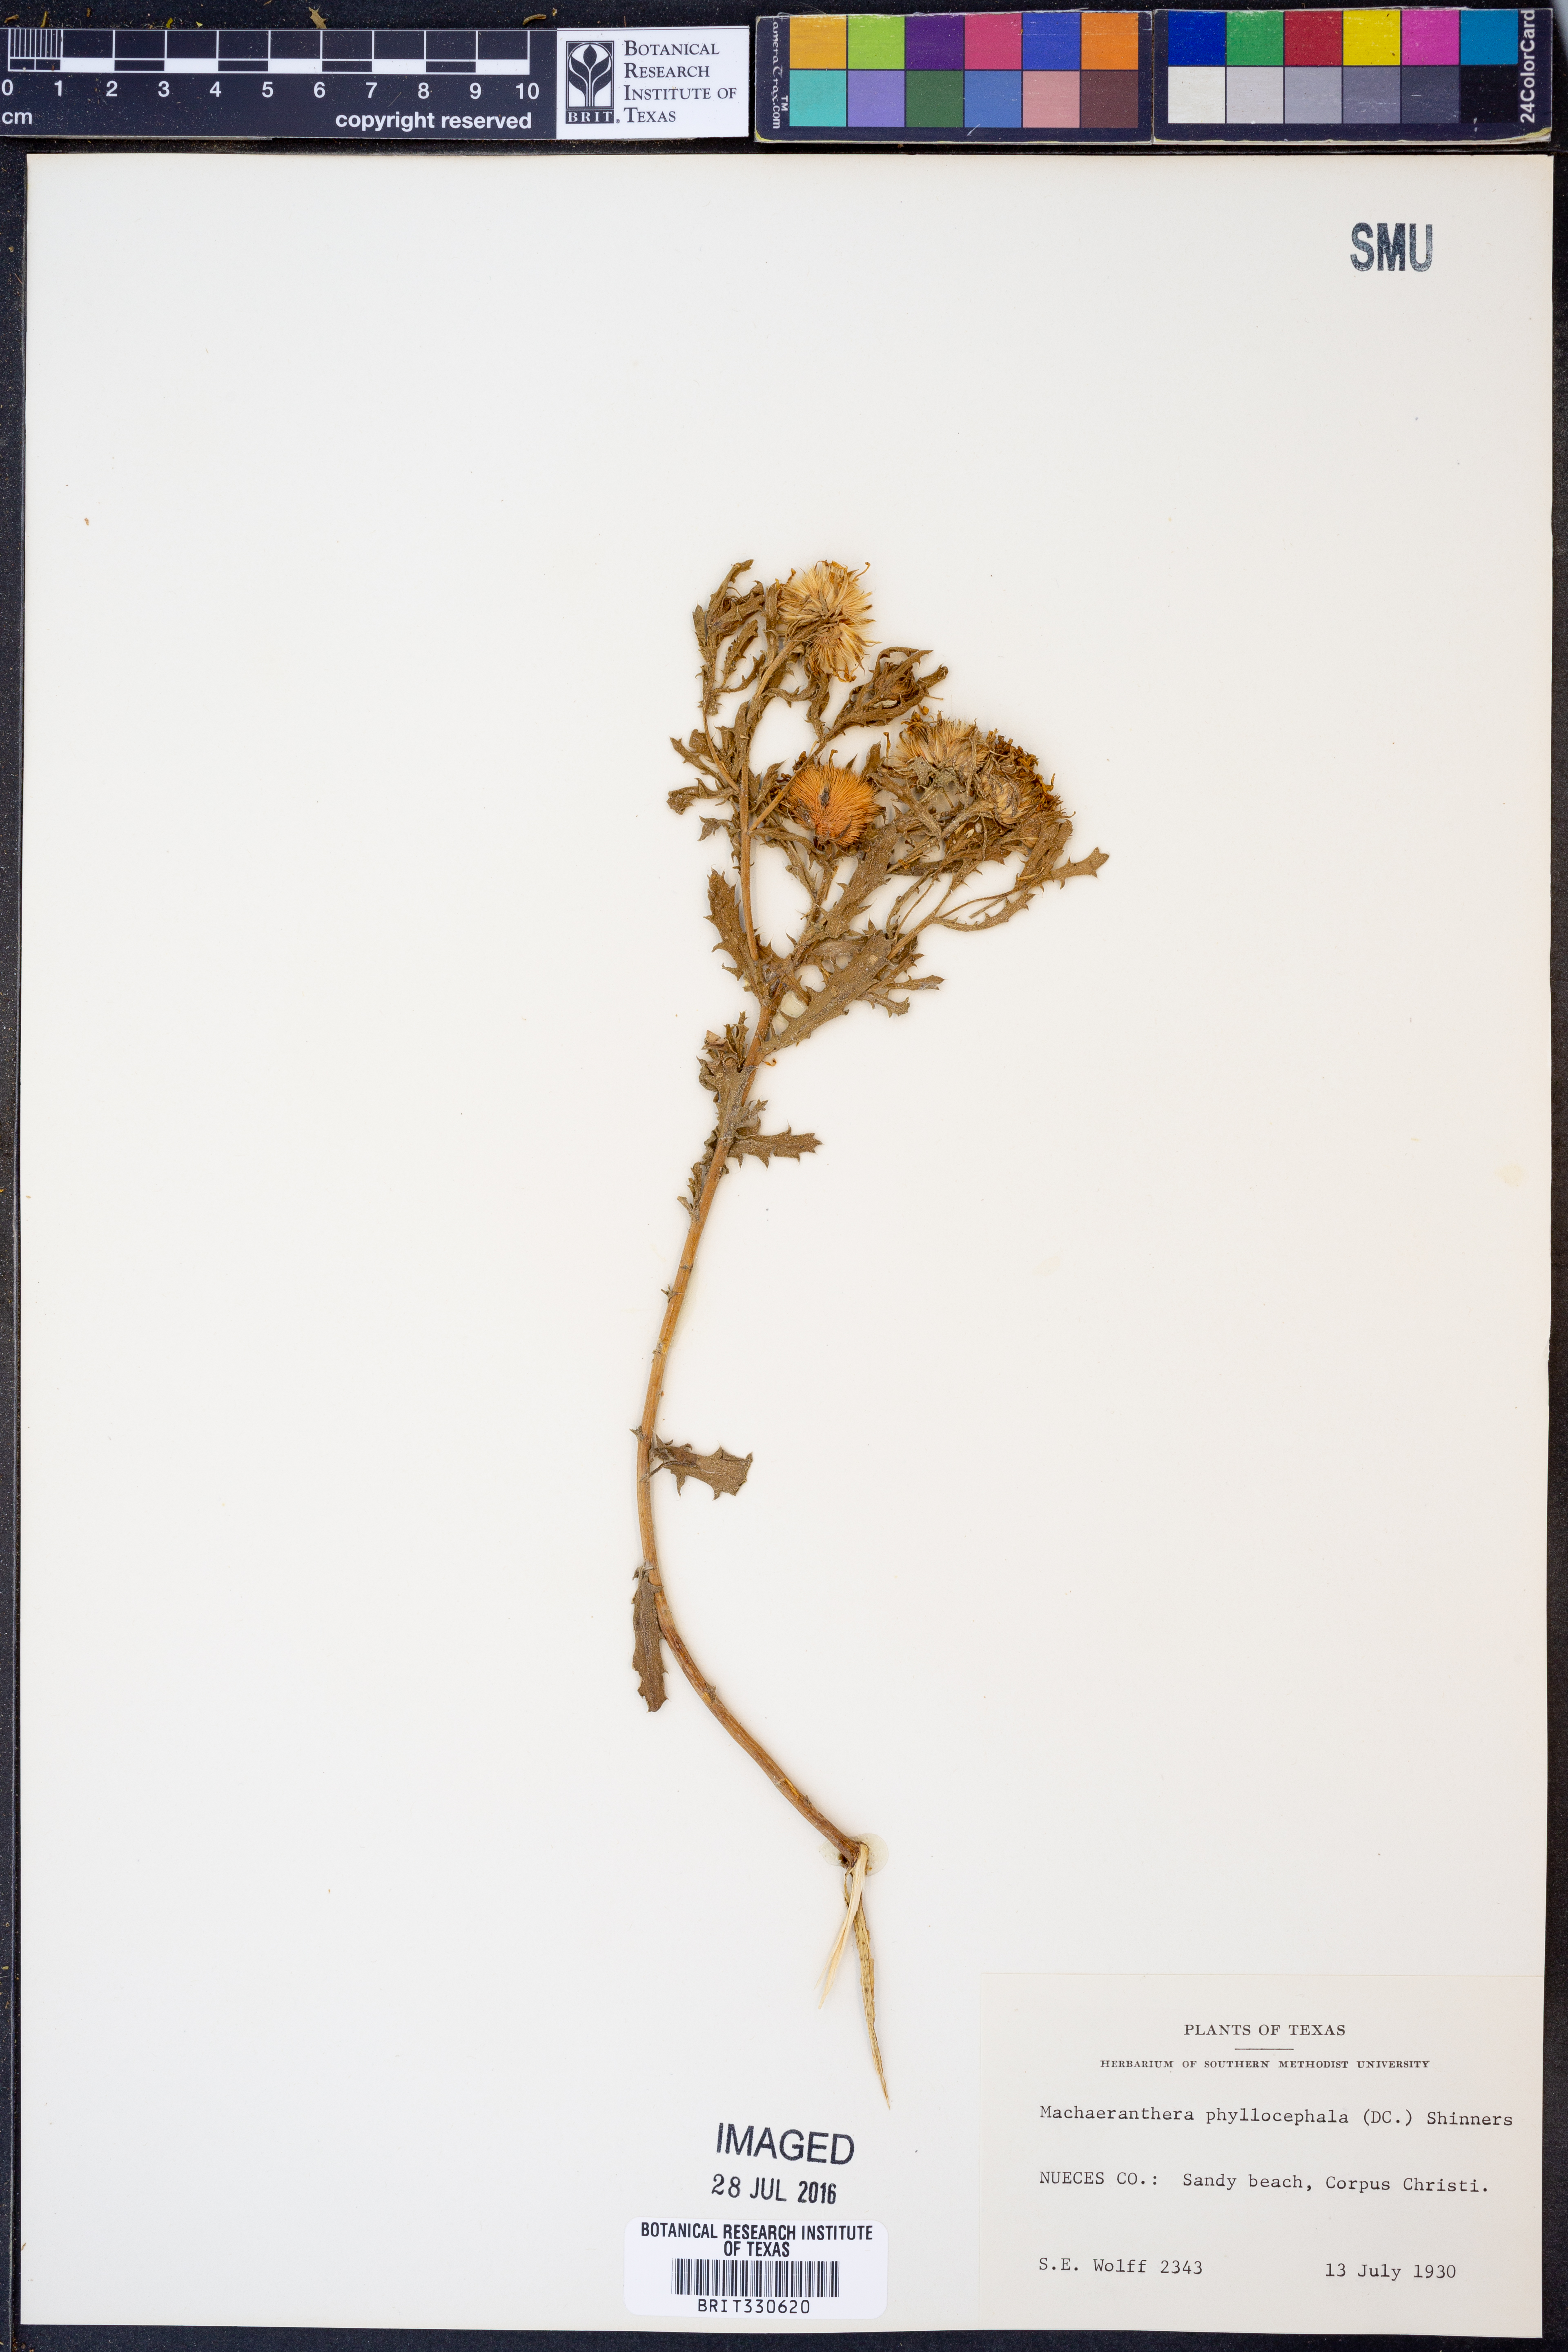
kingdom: Plantae
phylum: Tracheophyta
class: Magnoliopsida
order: Asterales
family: Asteraceae
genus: Rayjacksonia
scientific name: Rayjacksonia phyllocephala
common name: Gulf coast camphor daisy
